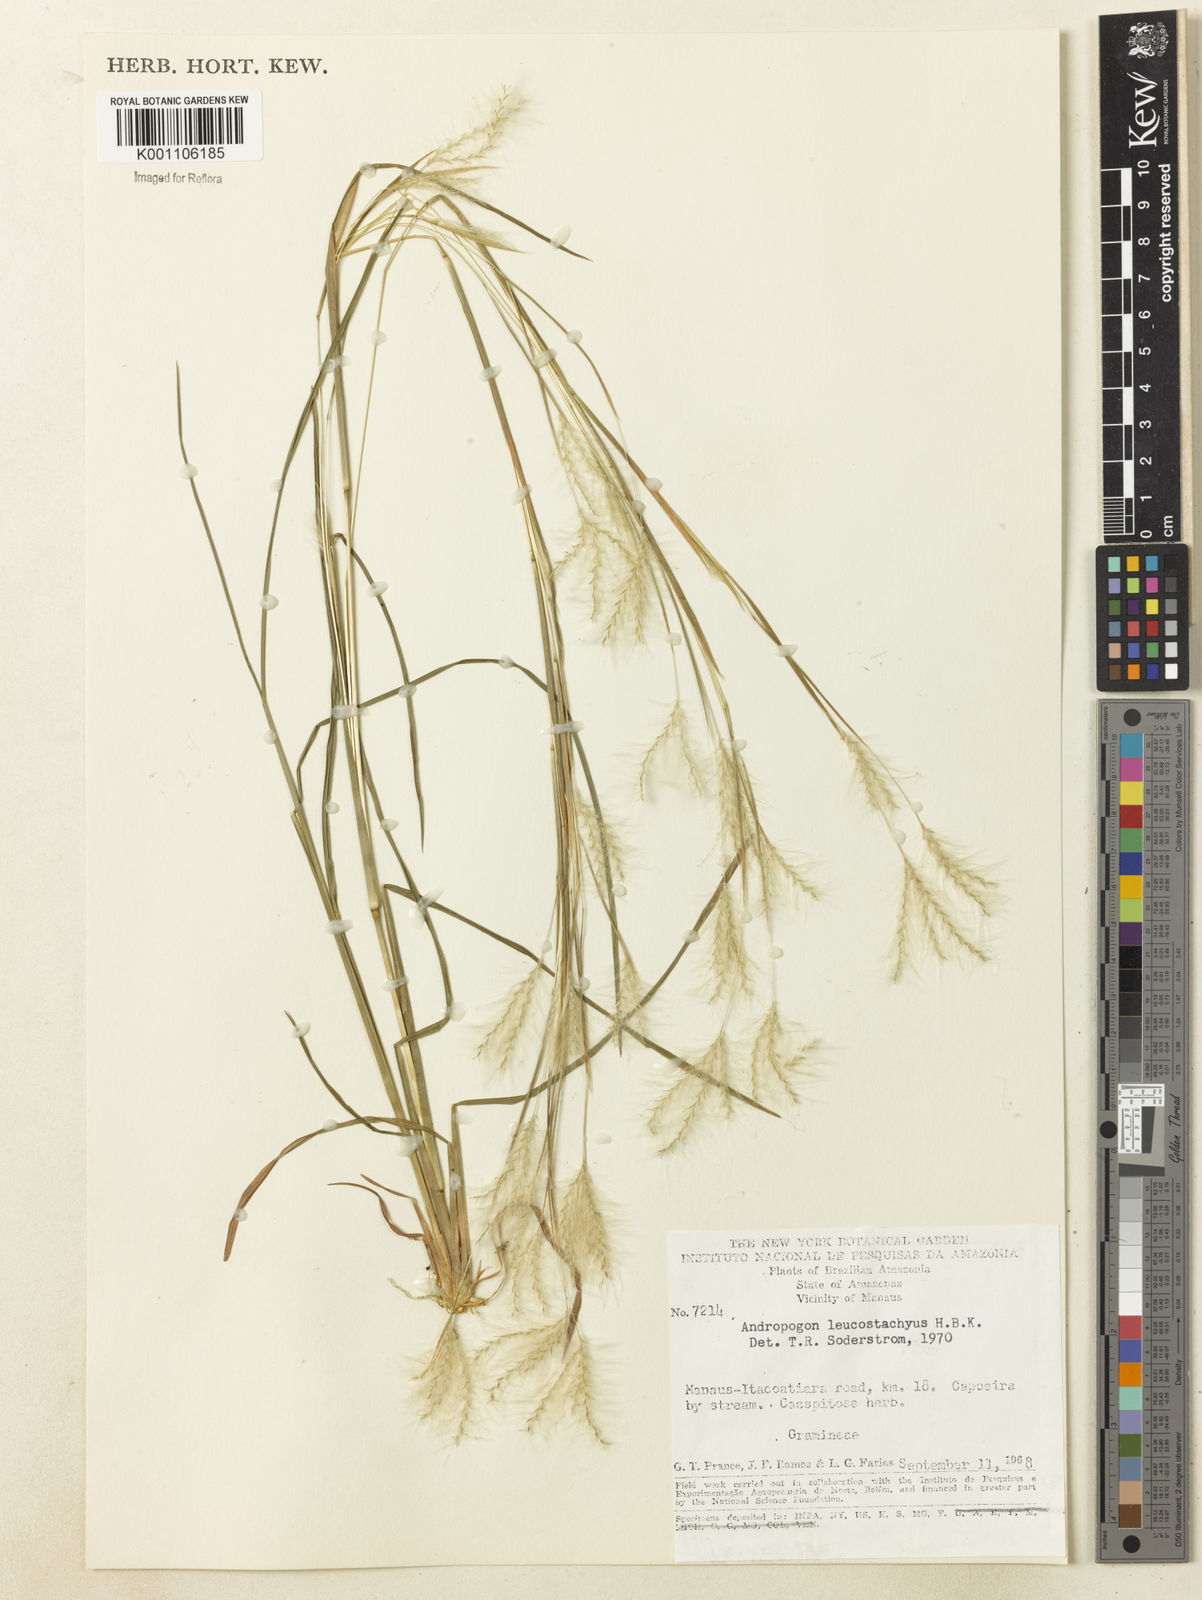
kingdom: Plantae
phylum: Tracheophyta
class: Liliopsida
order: Poales
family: Poaceae
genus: Andropogon
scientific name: Andropogon leucostachyus
